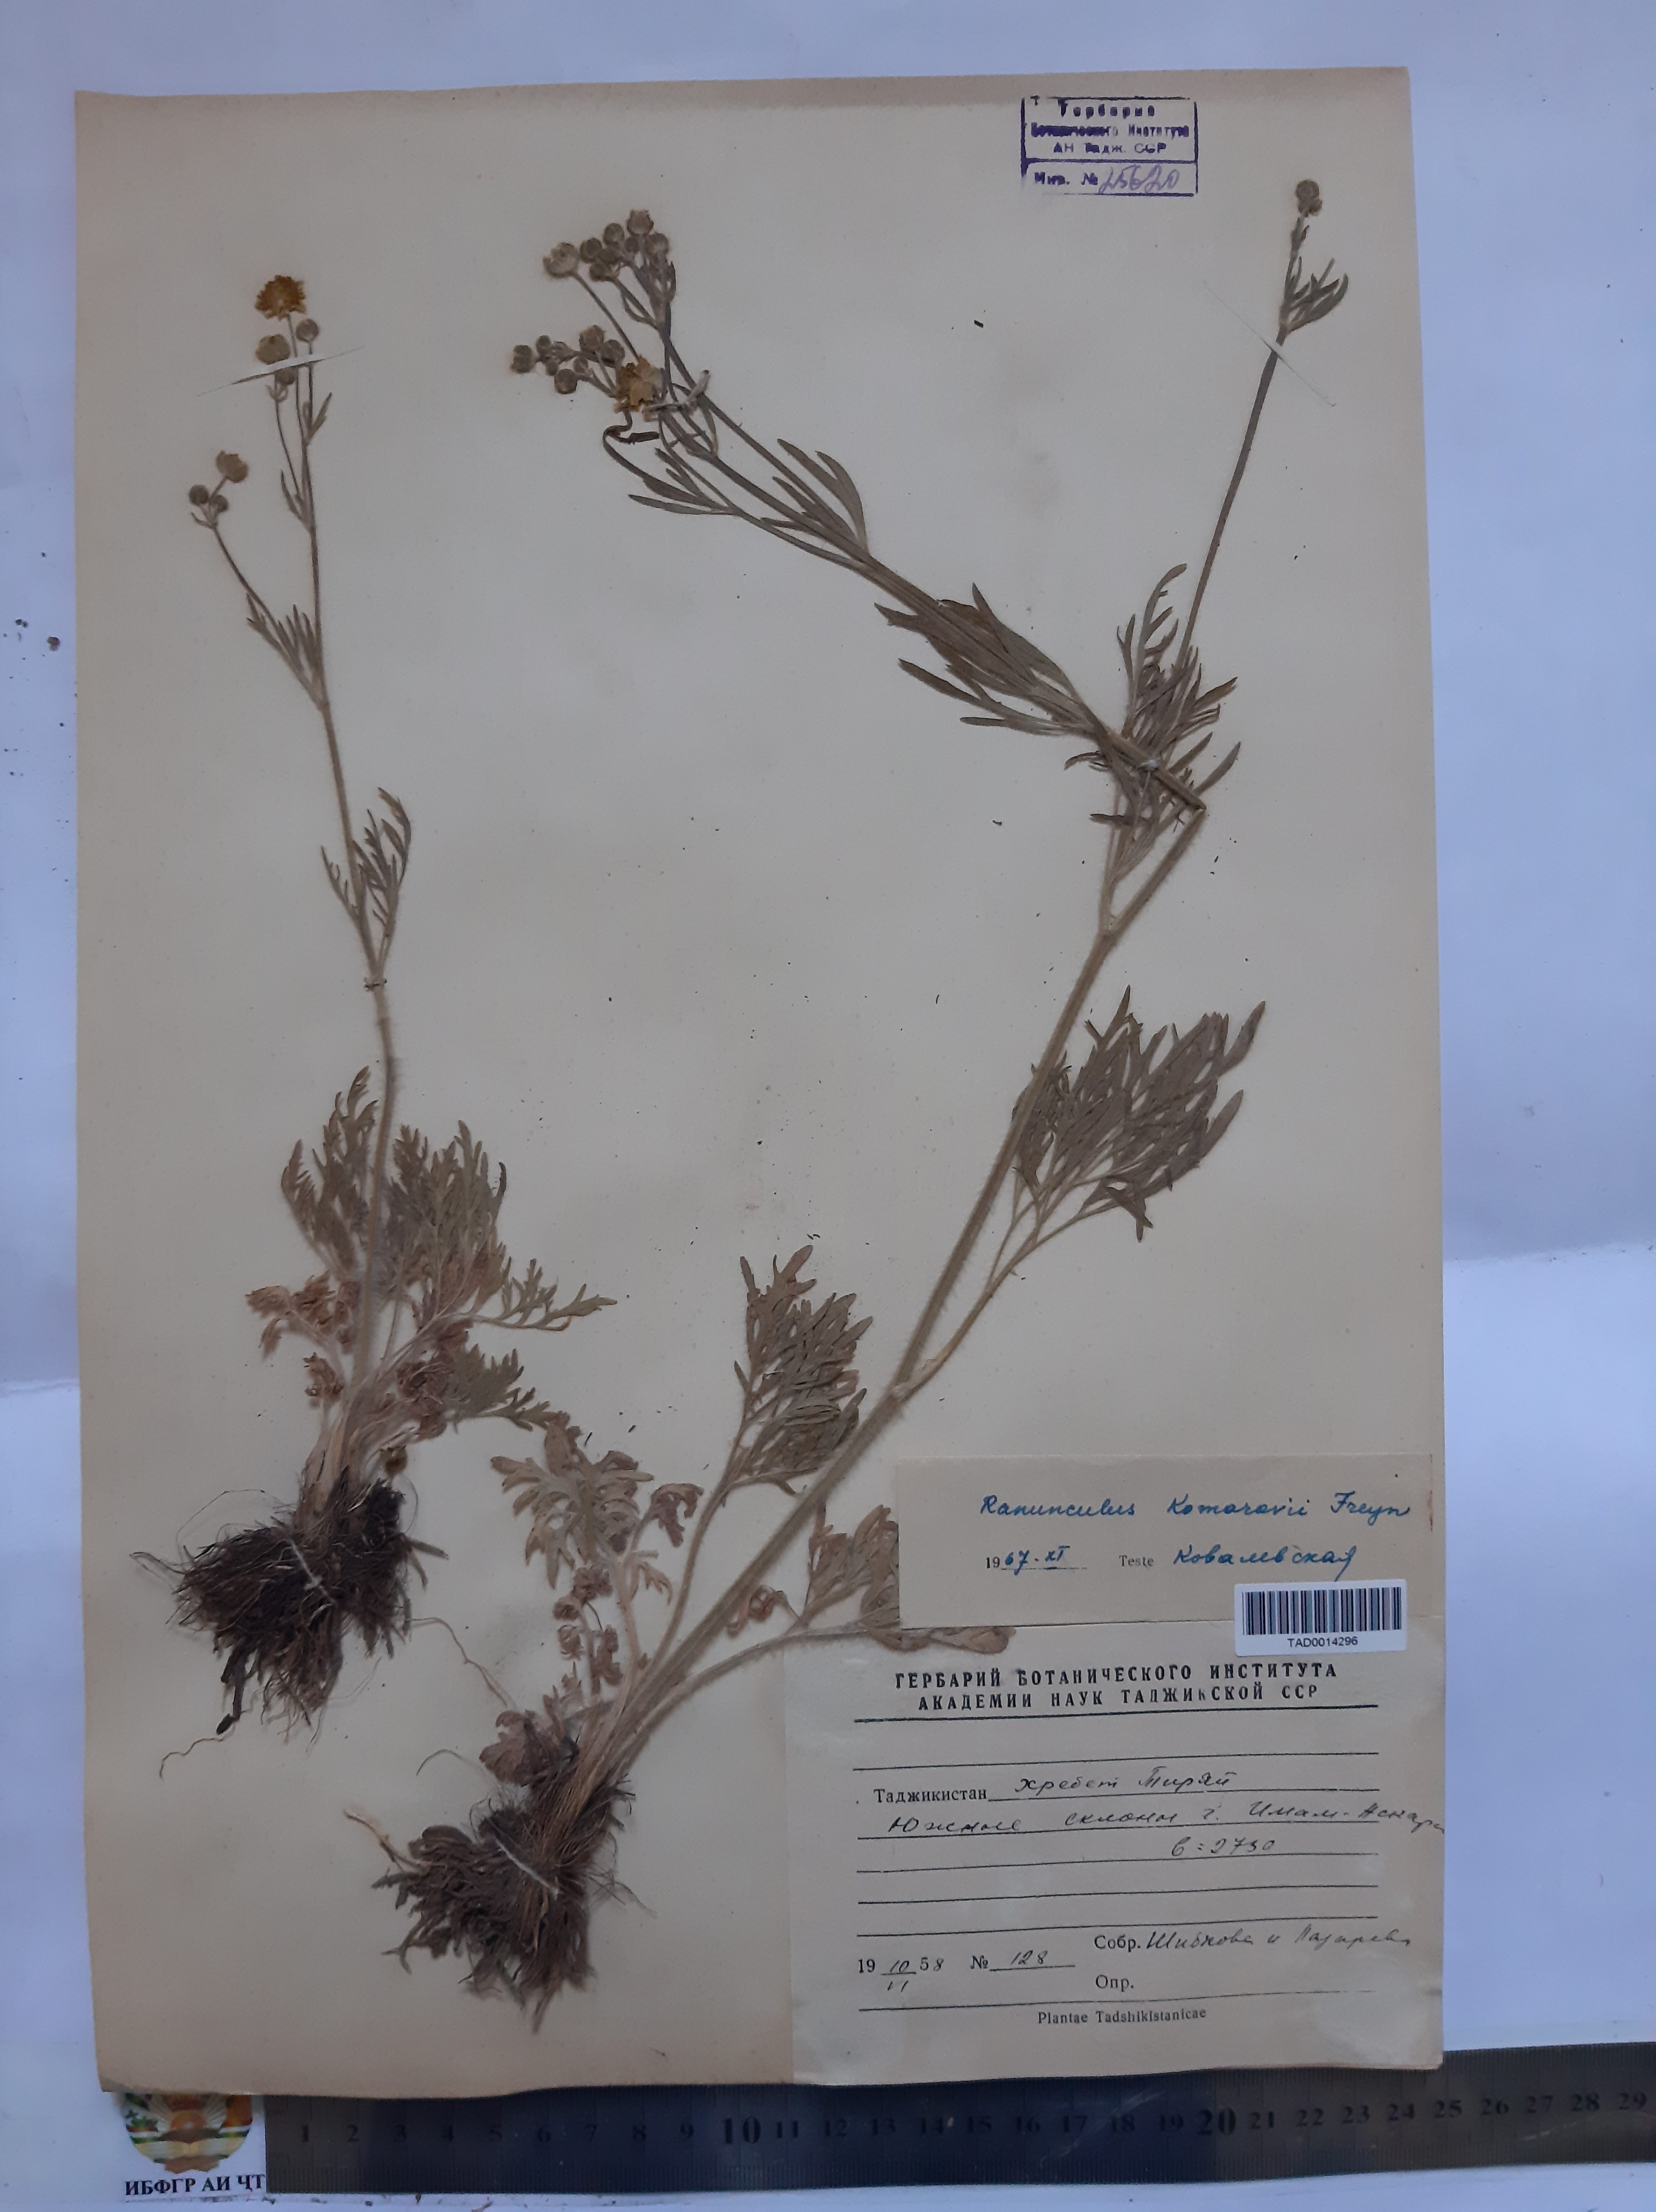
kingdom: Plantae
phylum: Tracheophyta
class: Magnoliopsida
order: Ranunculales
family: Ranunculaceae
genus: Ranunculus
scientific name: Ranunculus komarovii
